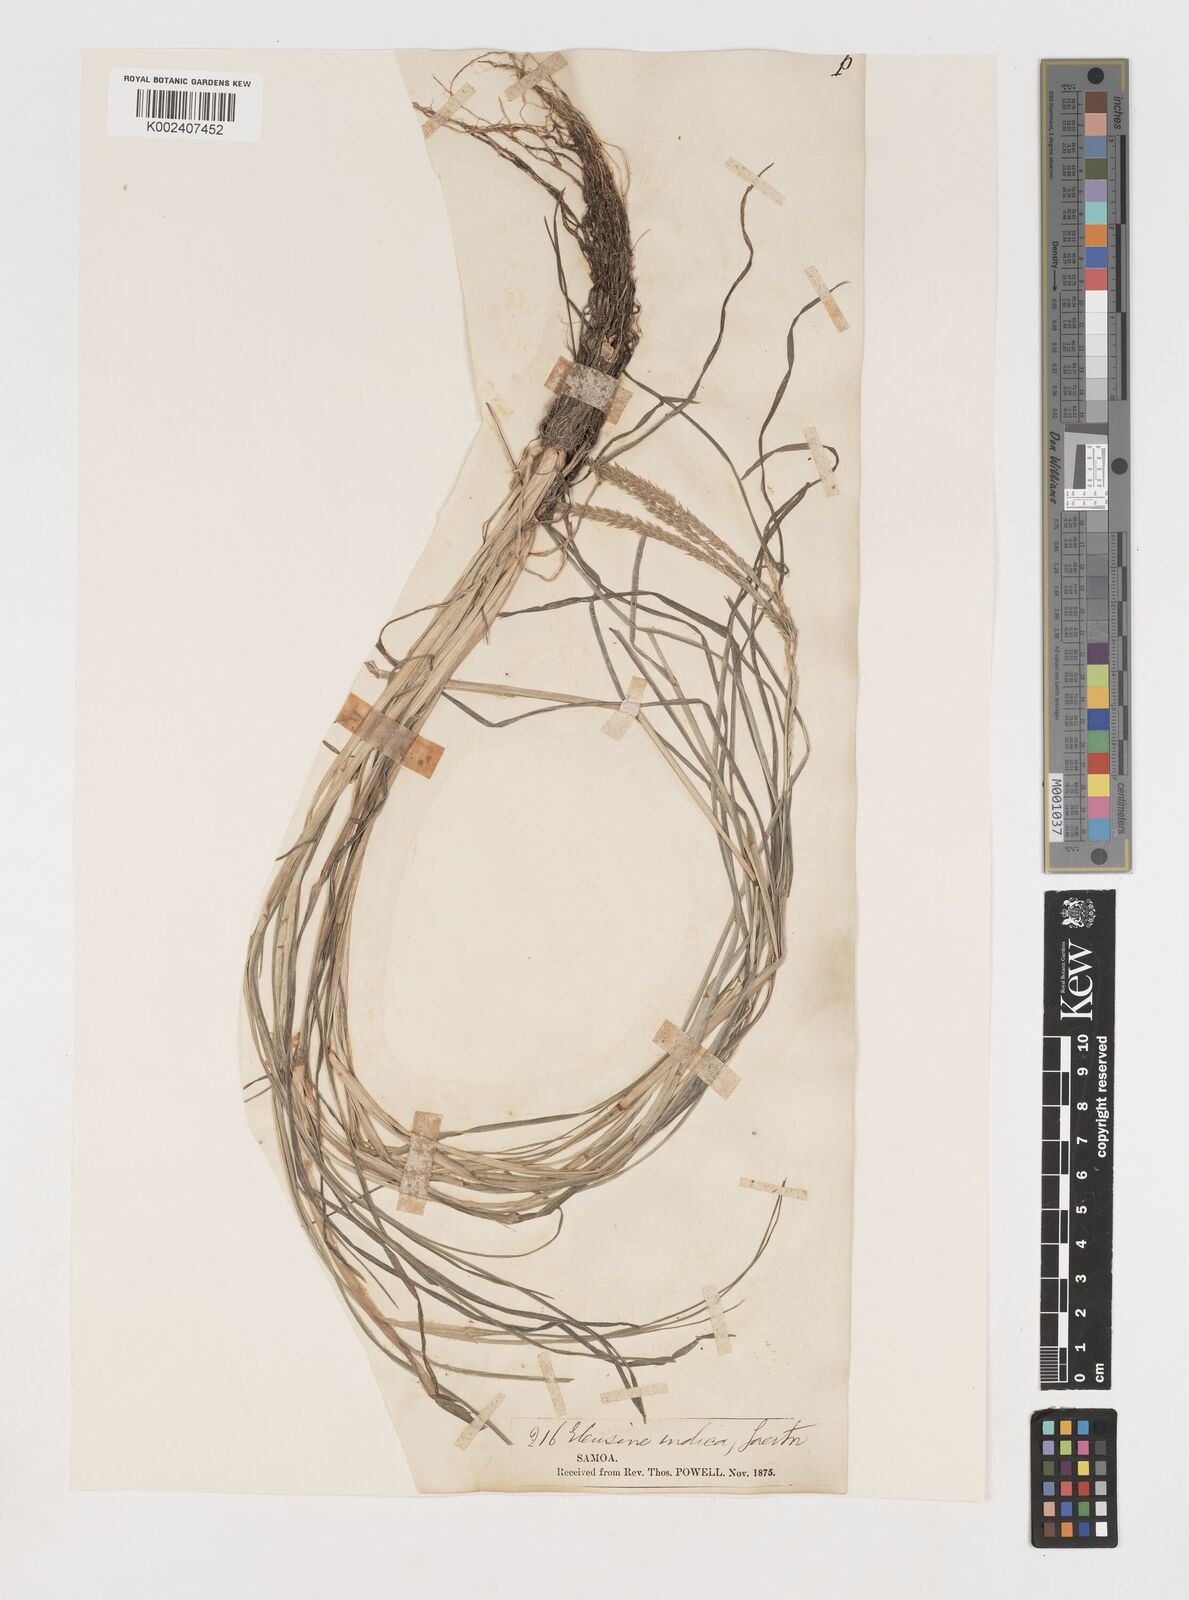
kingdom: Plantae
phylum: Tracheophyta
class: Liliopsida
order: Poales
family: Poaceae
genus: Eleusine
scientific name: Eleusine indica
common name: Yard-grass
